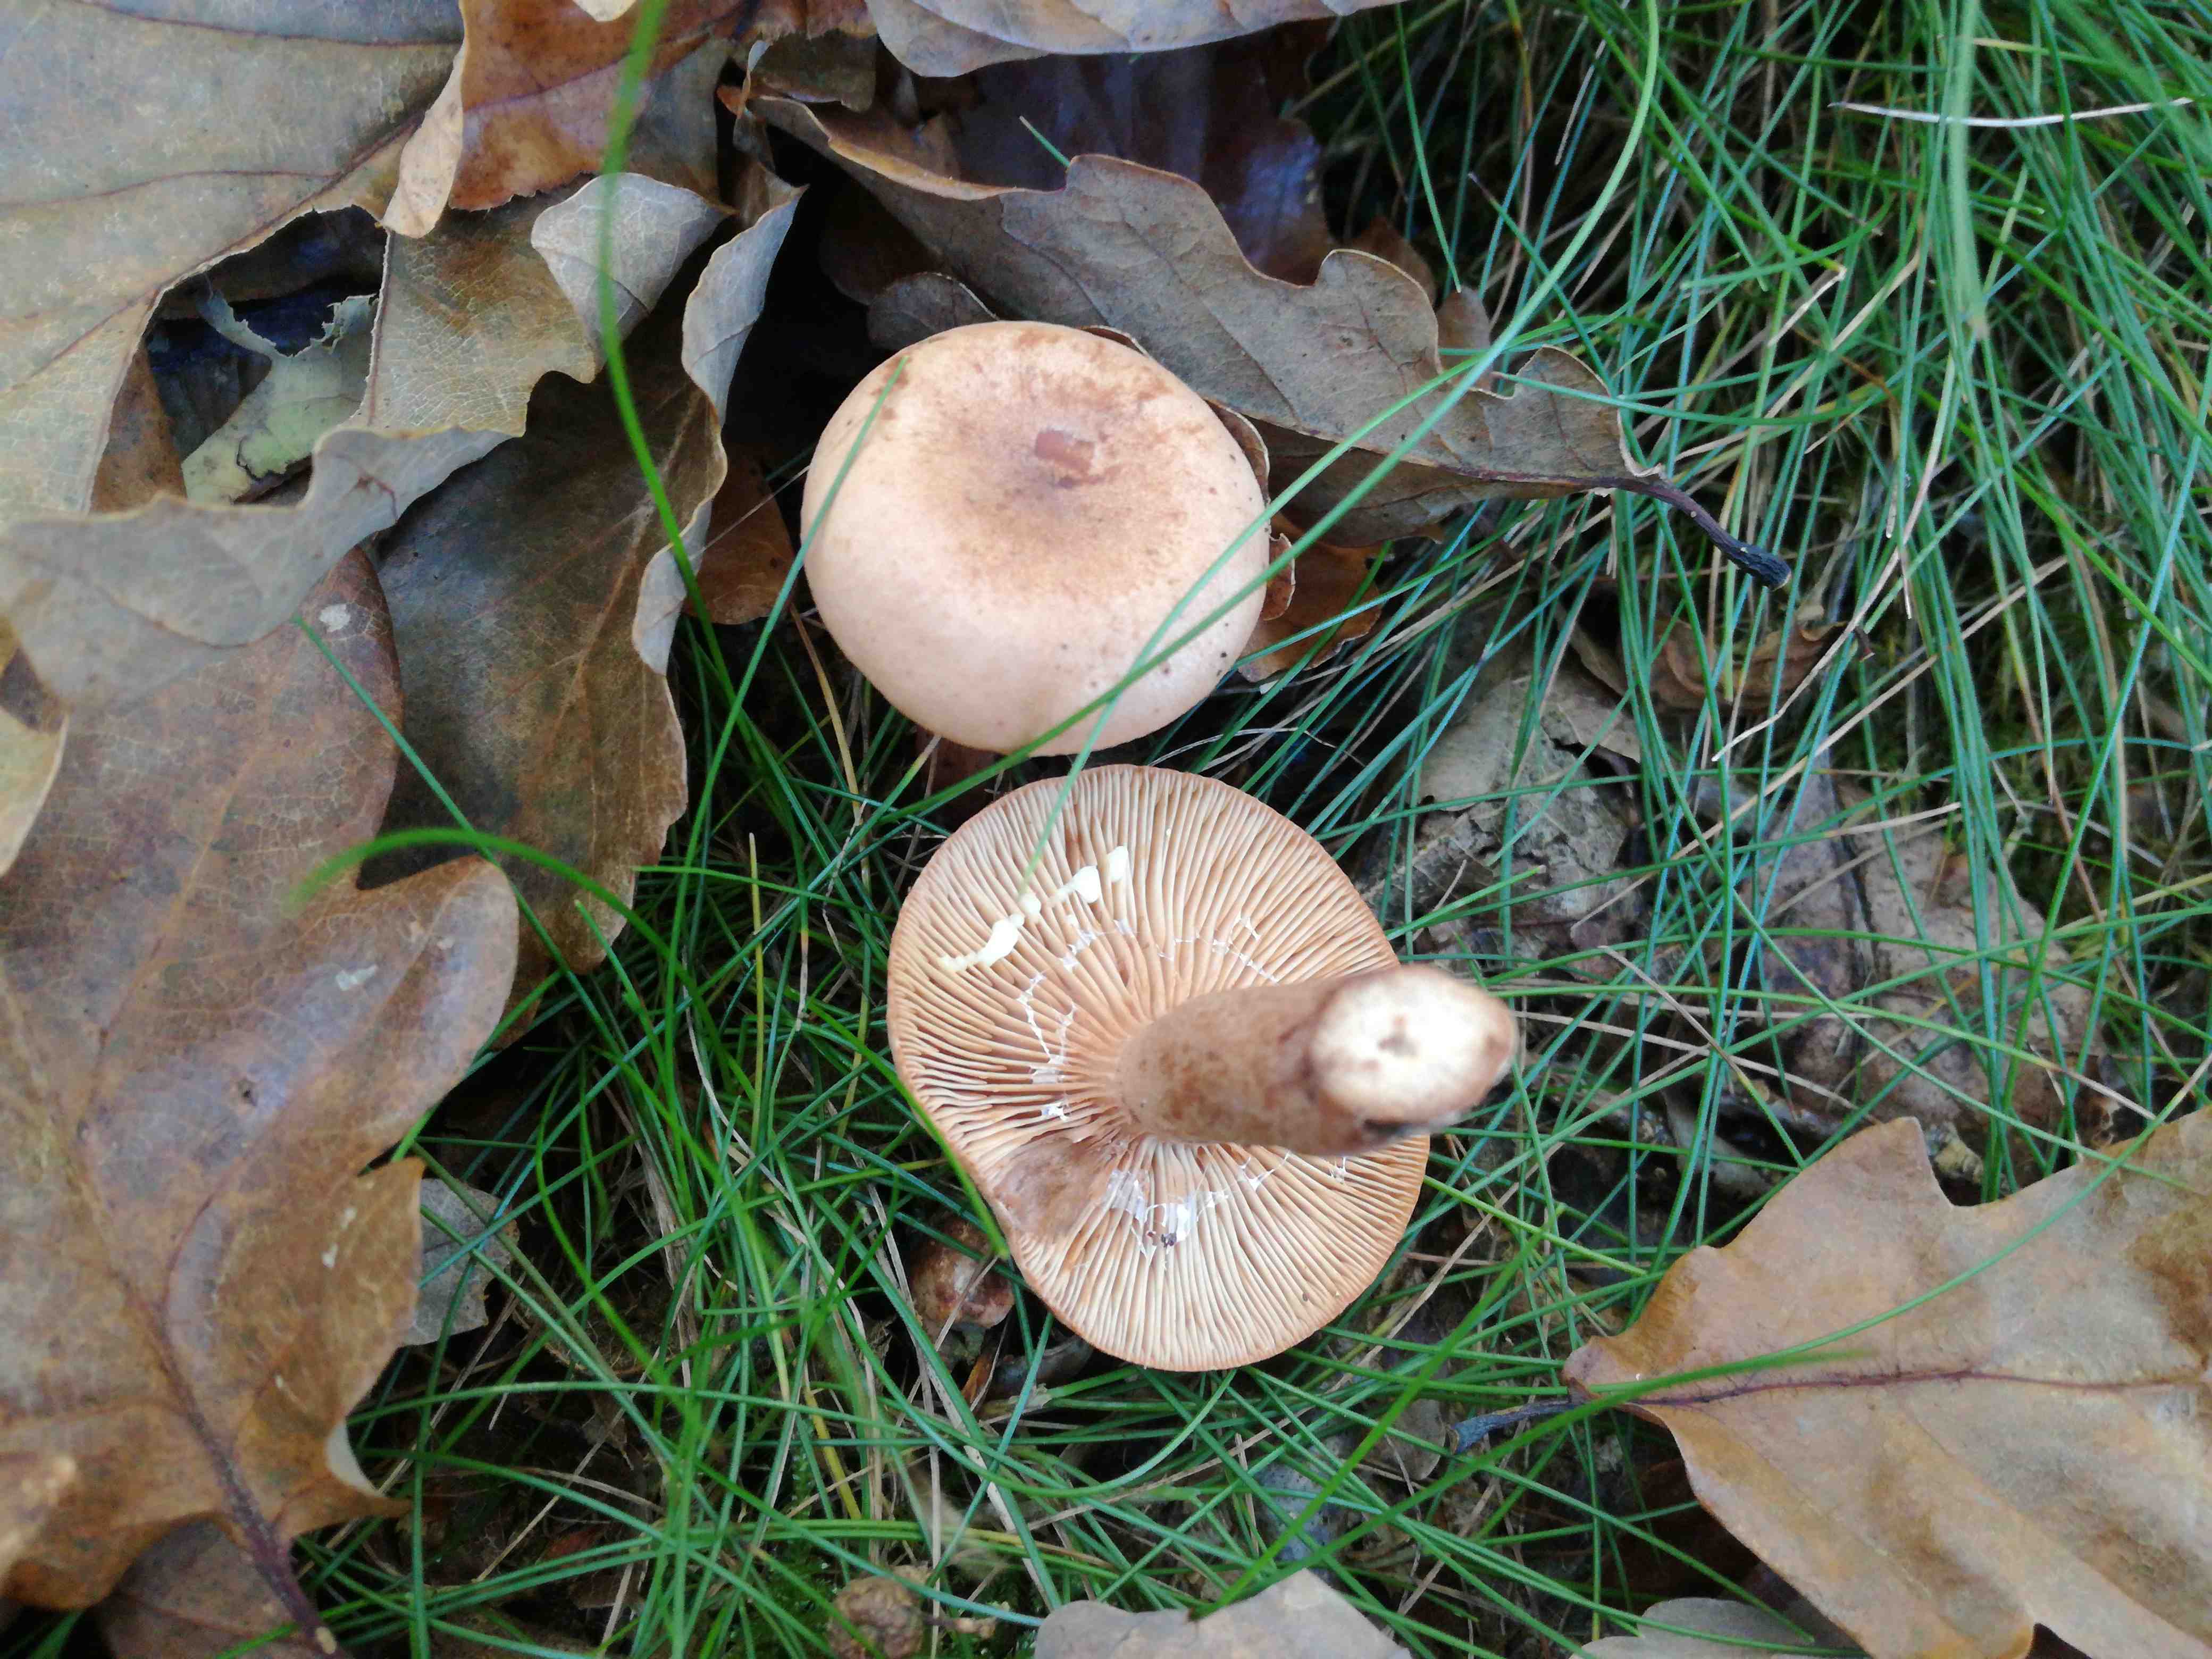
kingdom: Fungi
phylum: Basidiomycota
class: Agaricomycetes
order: Russulales
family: Russulaceae
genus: Lactarius
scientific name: Lactarius quietus
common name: ege-mælkehat
